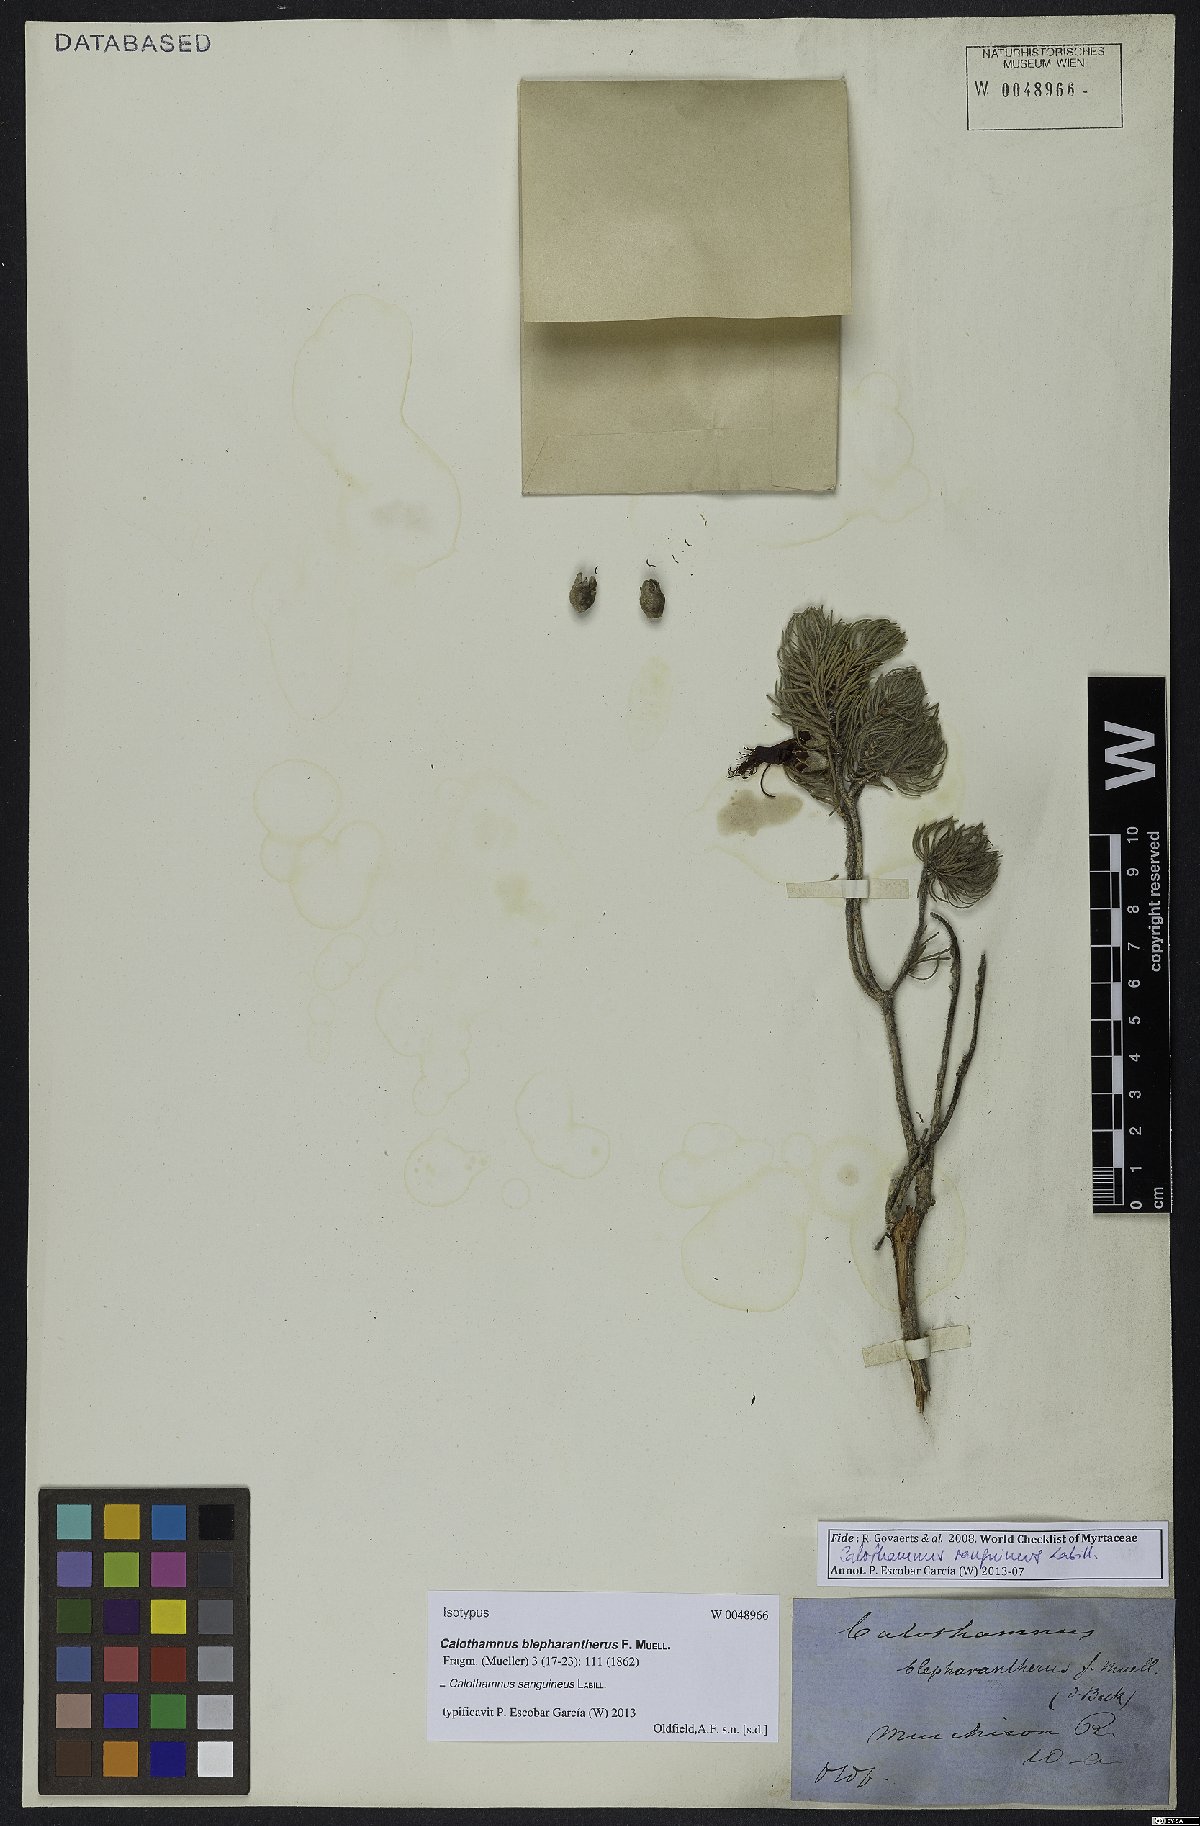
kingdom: Plantae
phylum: Tracheophyta
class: Magnoliopsida
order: Myrtales
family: Myrtaceae
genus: Melaleuca
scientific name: Melaleuca cruenta
